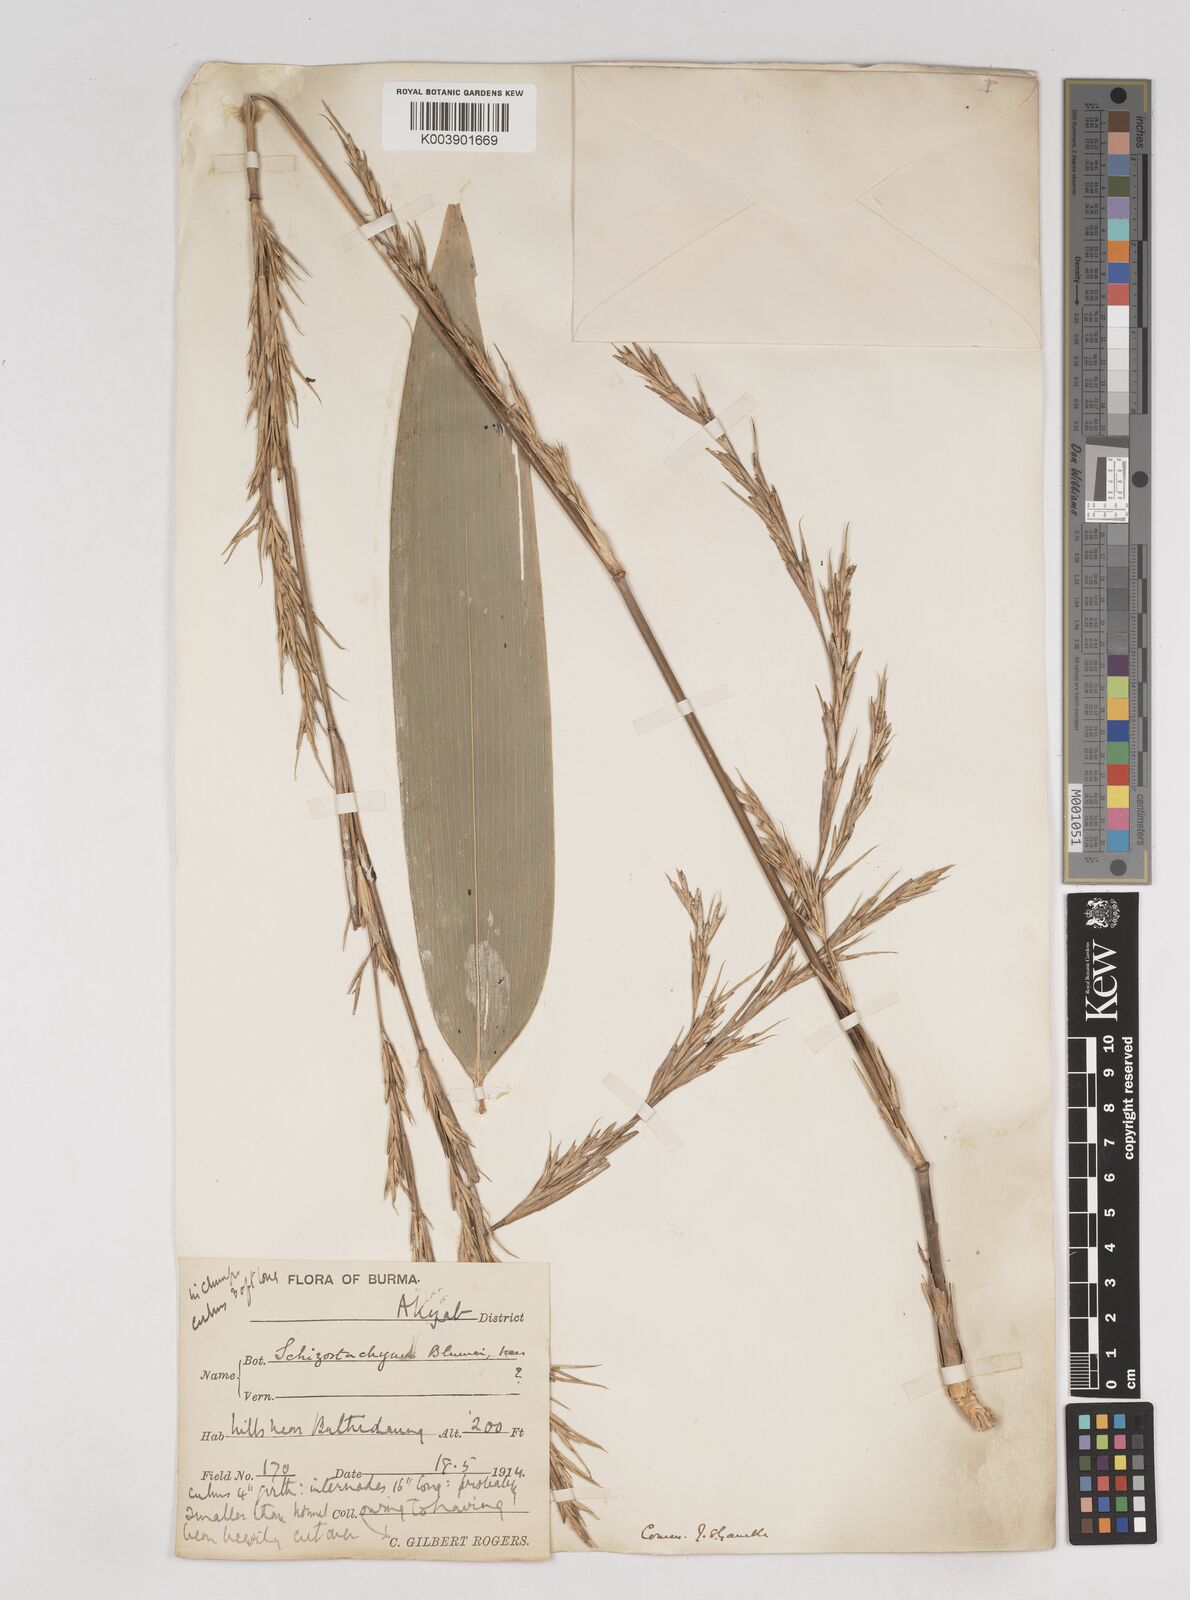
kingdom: Plantae
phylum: Tracheophyta
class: Liliopsida
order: Poales
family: Poaceae
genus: Schizostachyum
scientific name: Schizostachyum
